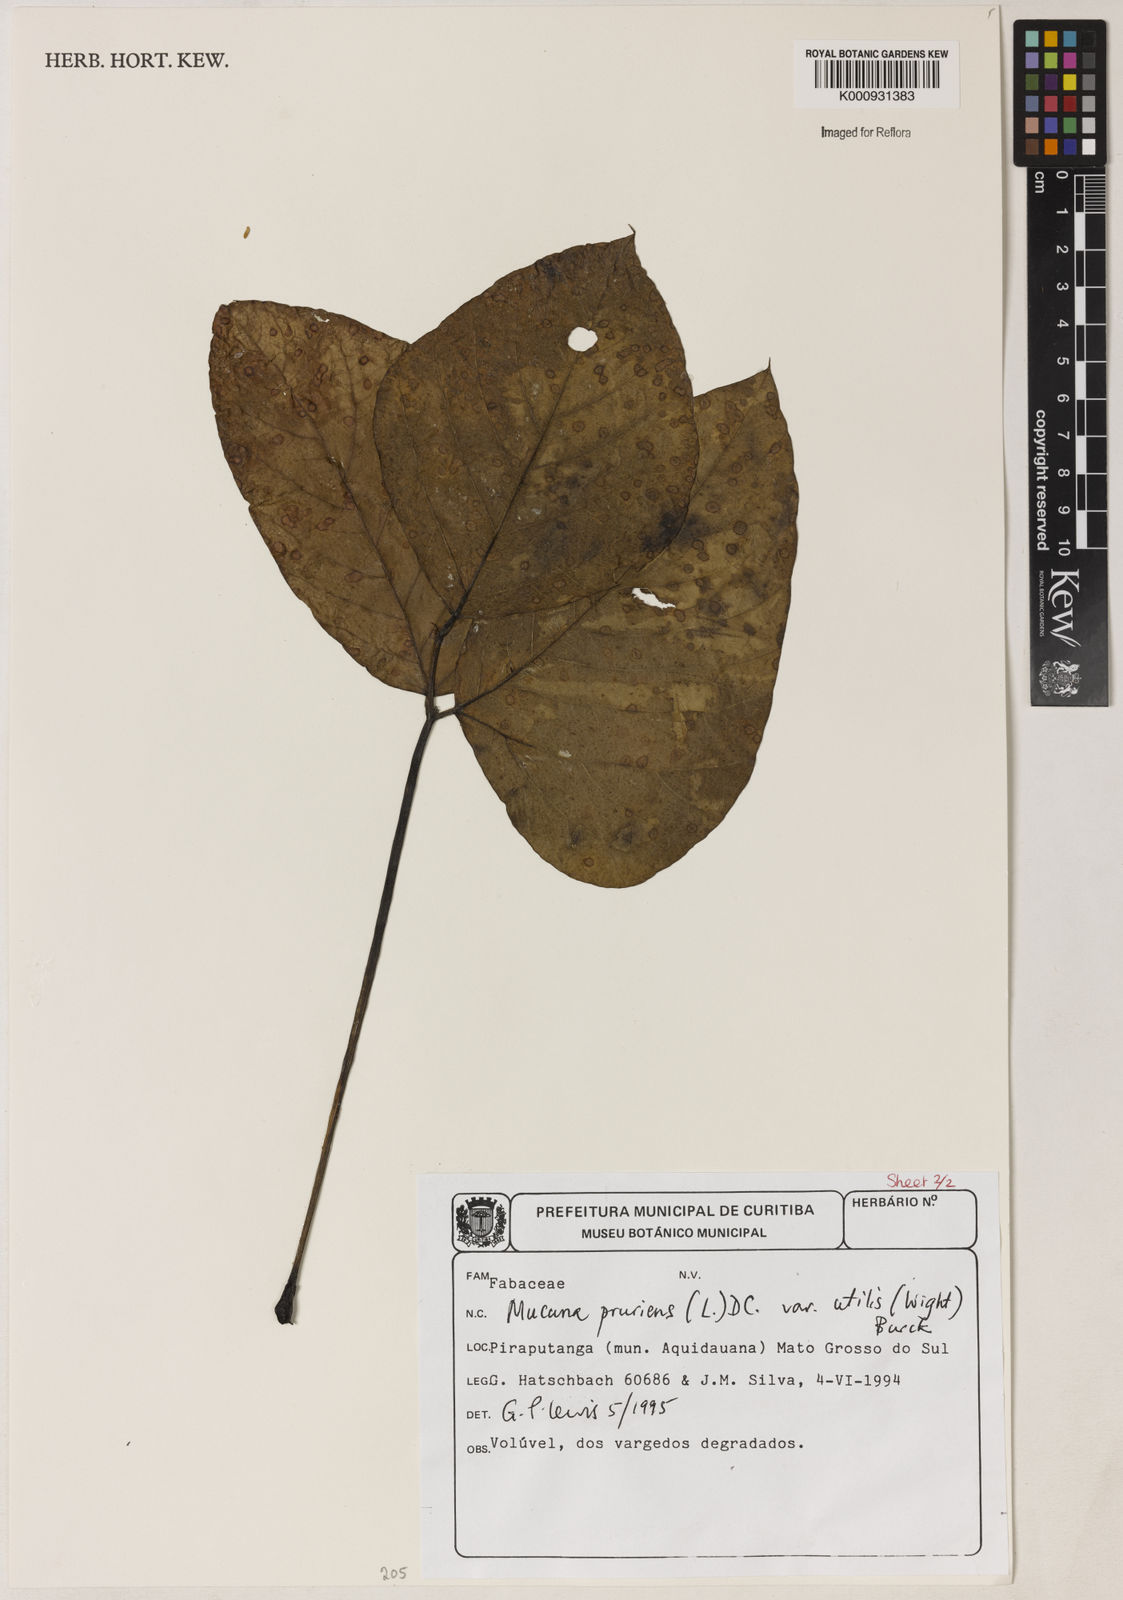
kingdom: Plantae
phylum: Tracheophyta
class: Magnoliopsida
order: Fabales
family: Fabaceae
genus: Mucuna
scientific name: Mucuna pruriens
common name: Cow-itch
